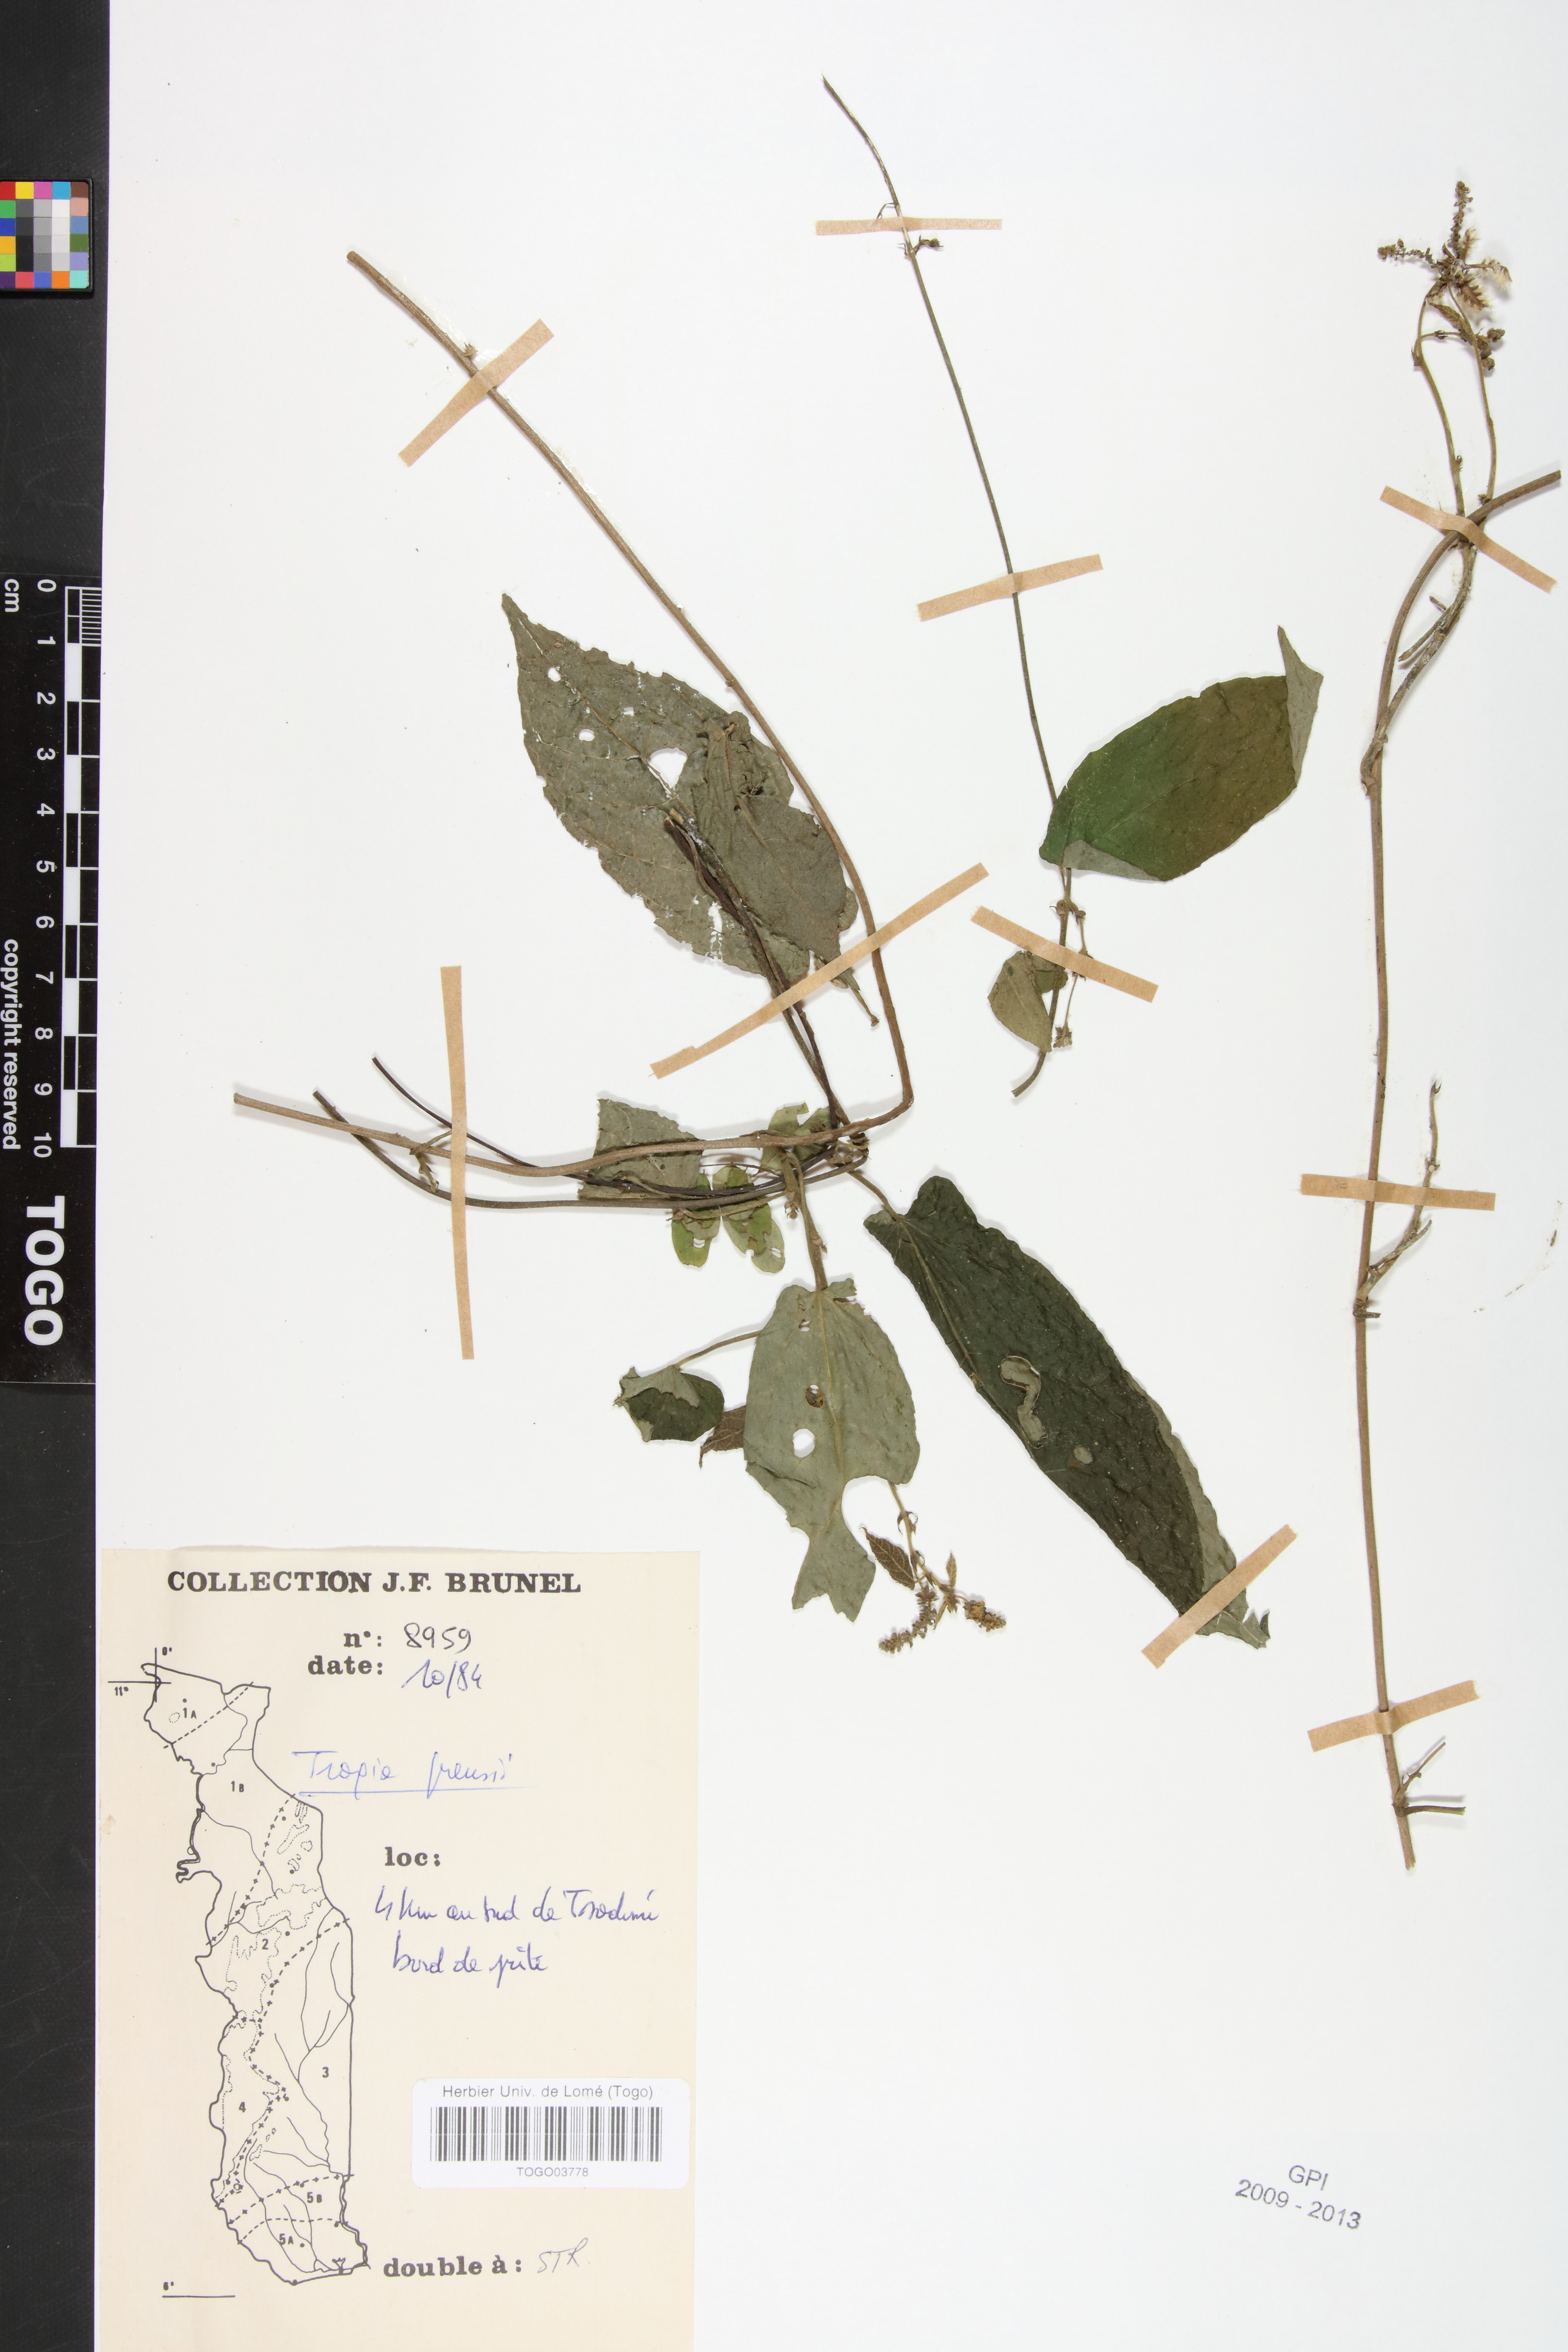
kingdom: Plantae
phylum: Tracheophyta
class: Magnoliopsida
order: Malpighiales
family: Euphorbiaceae
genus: Tragia
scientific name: Tragia preussii
